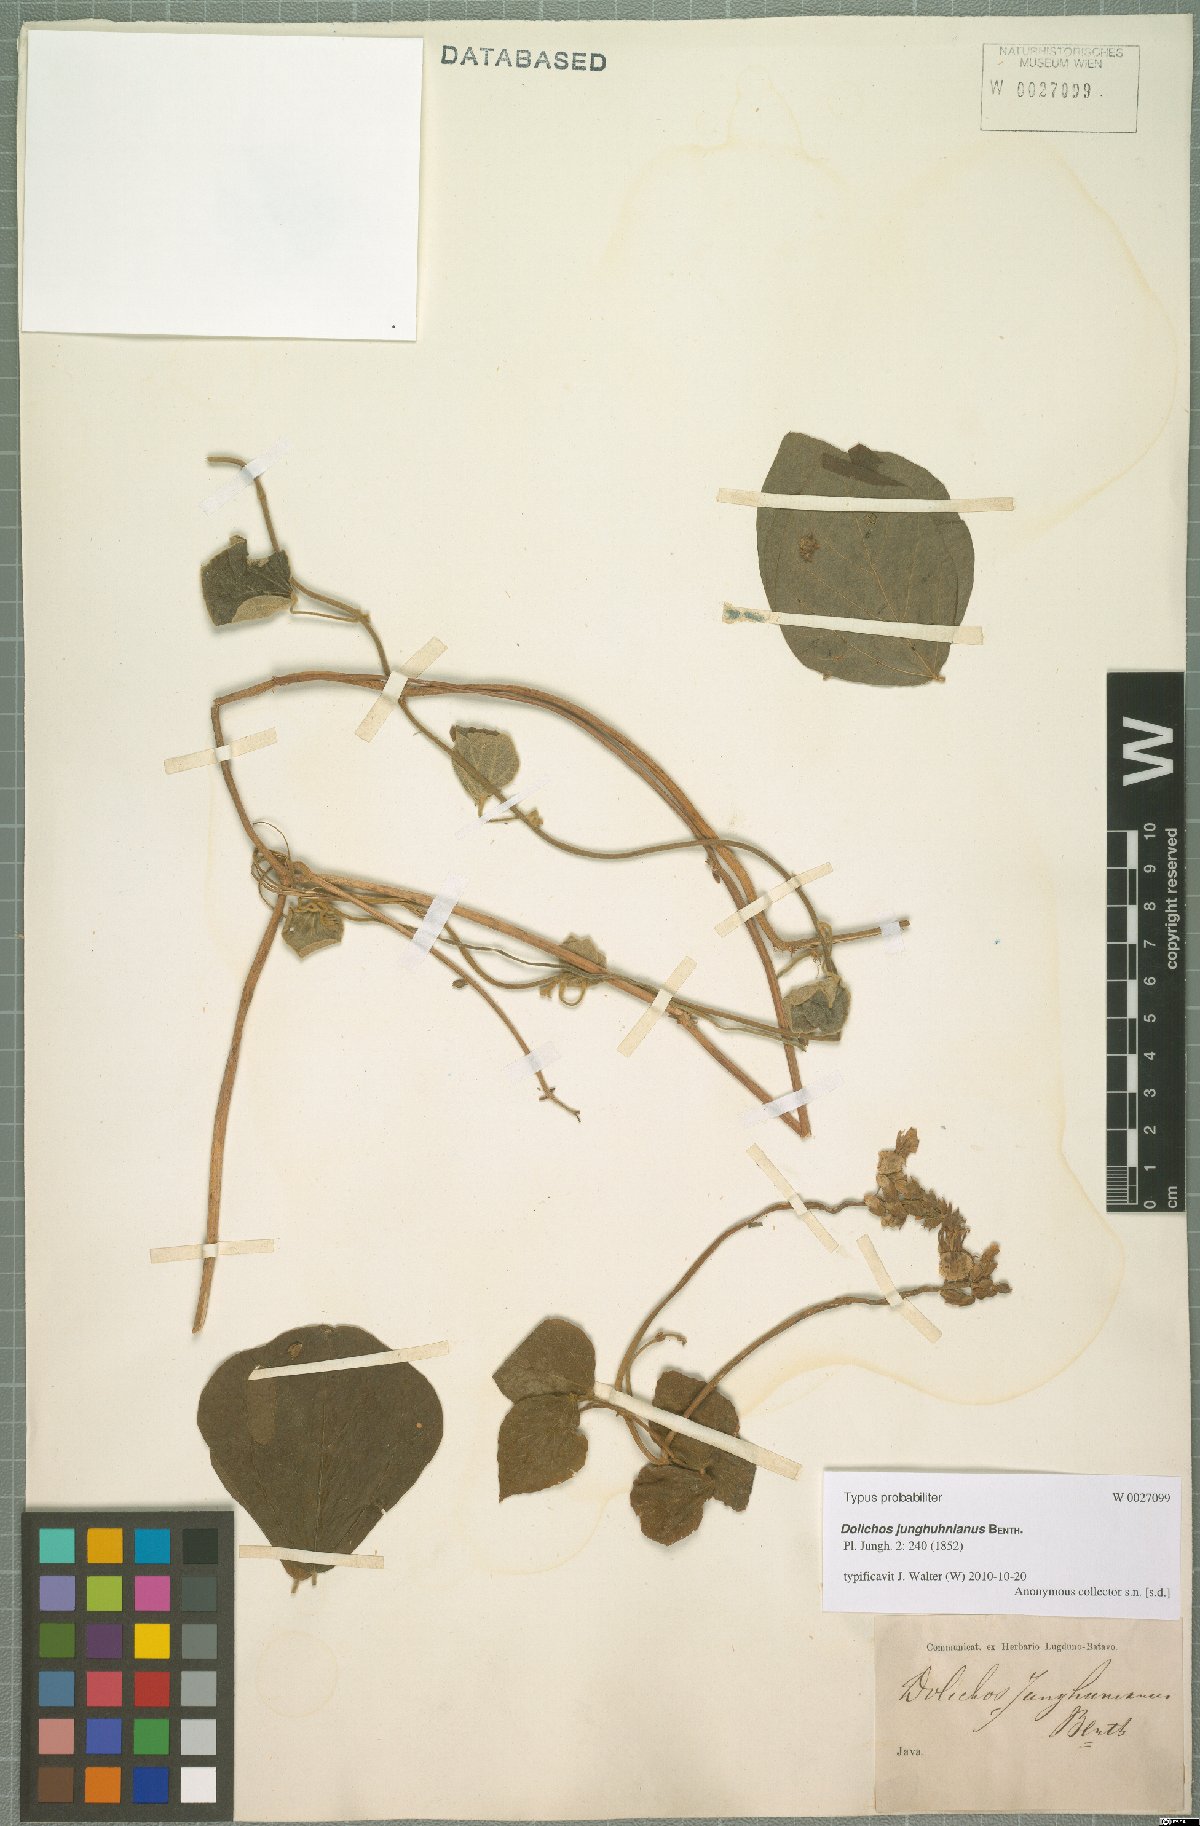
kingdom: Plantae
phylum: Tracheophyta
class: Magnoliopsida
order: Fabales
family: Fabaceae
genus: Dolichos
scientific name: Dolichos junghuhnianus
